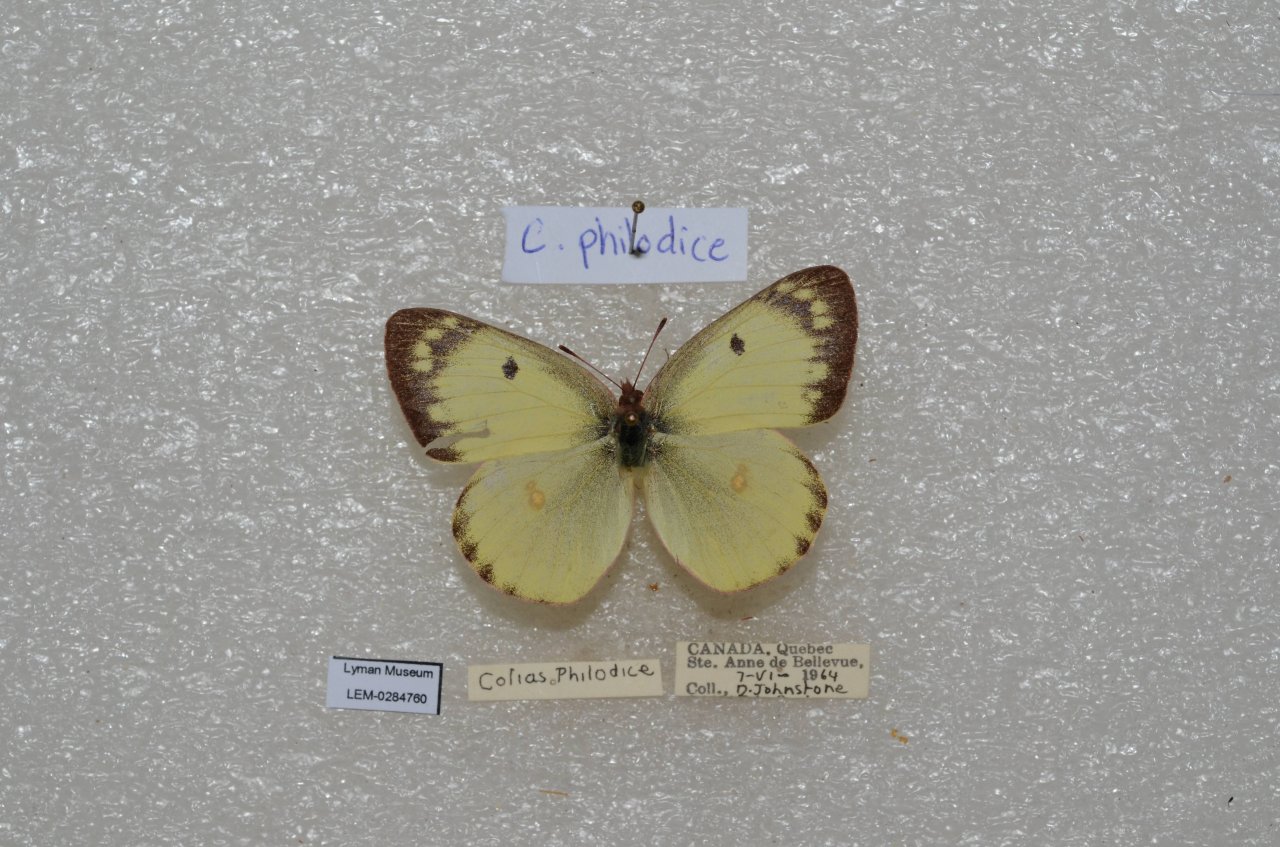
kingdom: Animalia
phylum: Arthropoda
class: Insecta
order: Lepidoptera
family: Pieridae
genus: Colias
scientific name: Colias philodice
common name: Clouded Sulphur
